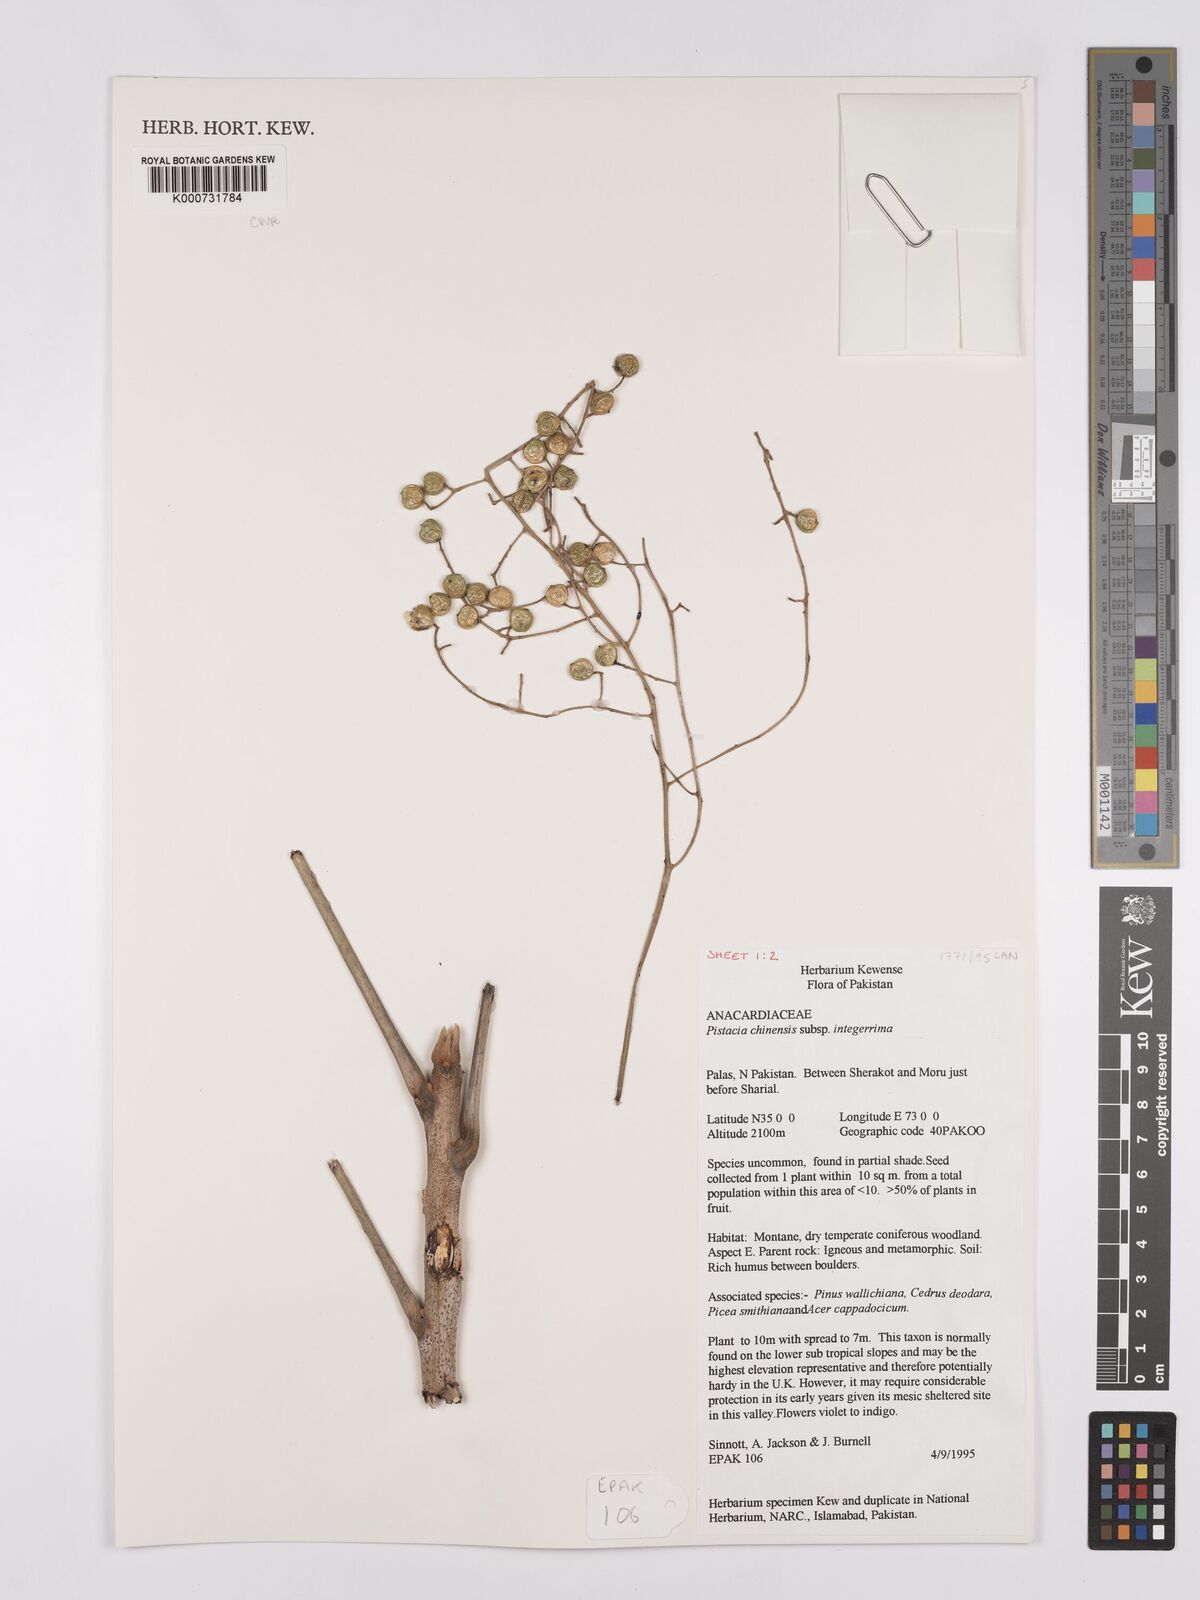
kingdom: Plantae
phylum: Tracheophyta
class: Magnoliopsida
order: Sapindales
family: Anacardiaceae
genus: Pistacia
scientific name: Pistacia chinensis
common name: Chinese pistache
